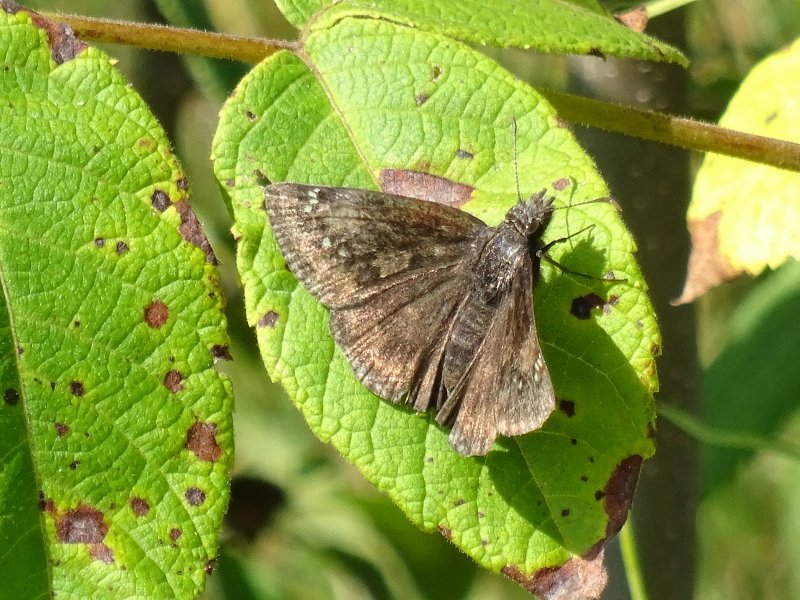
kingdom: Animalia
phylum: Arthropoda
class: Insecta
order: Lepidoptera
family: Hesperiidae
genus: Gesta
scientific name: Gesta
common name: Wild Indigo Duskywing
